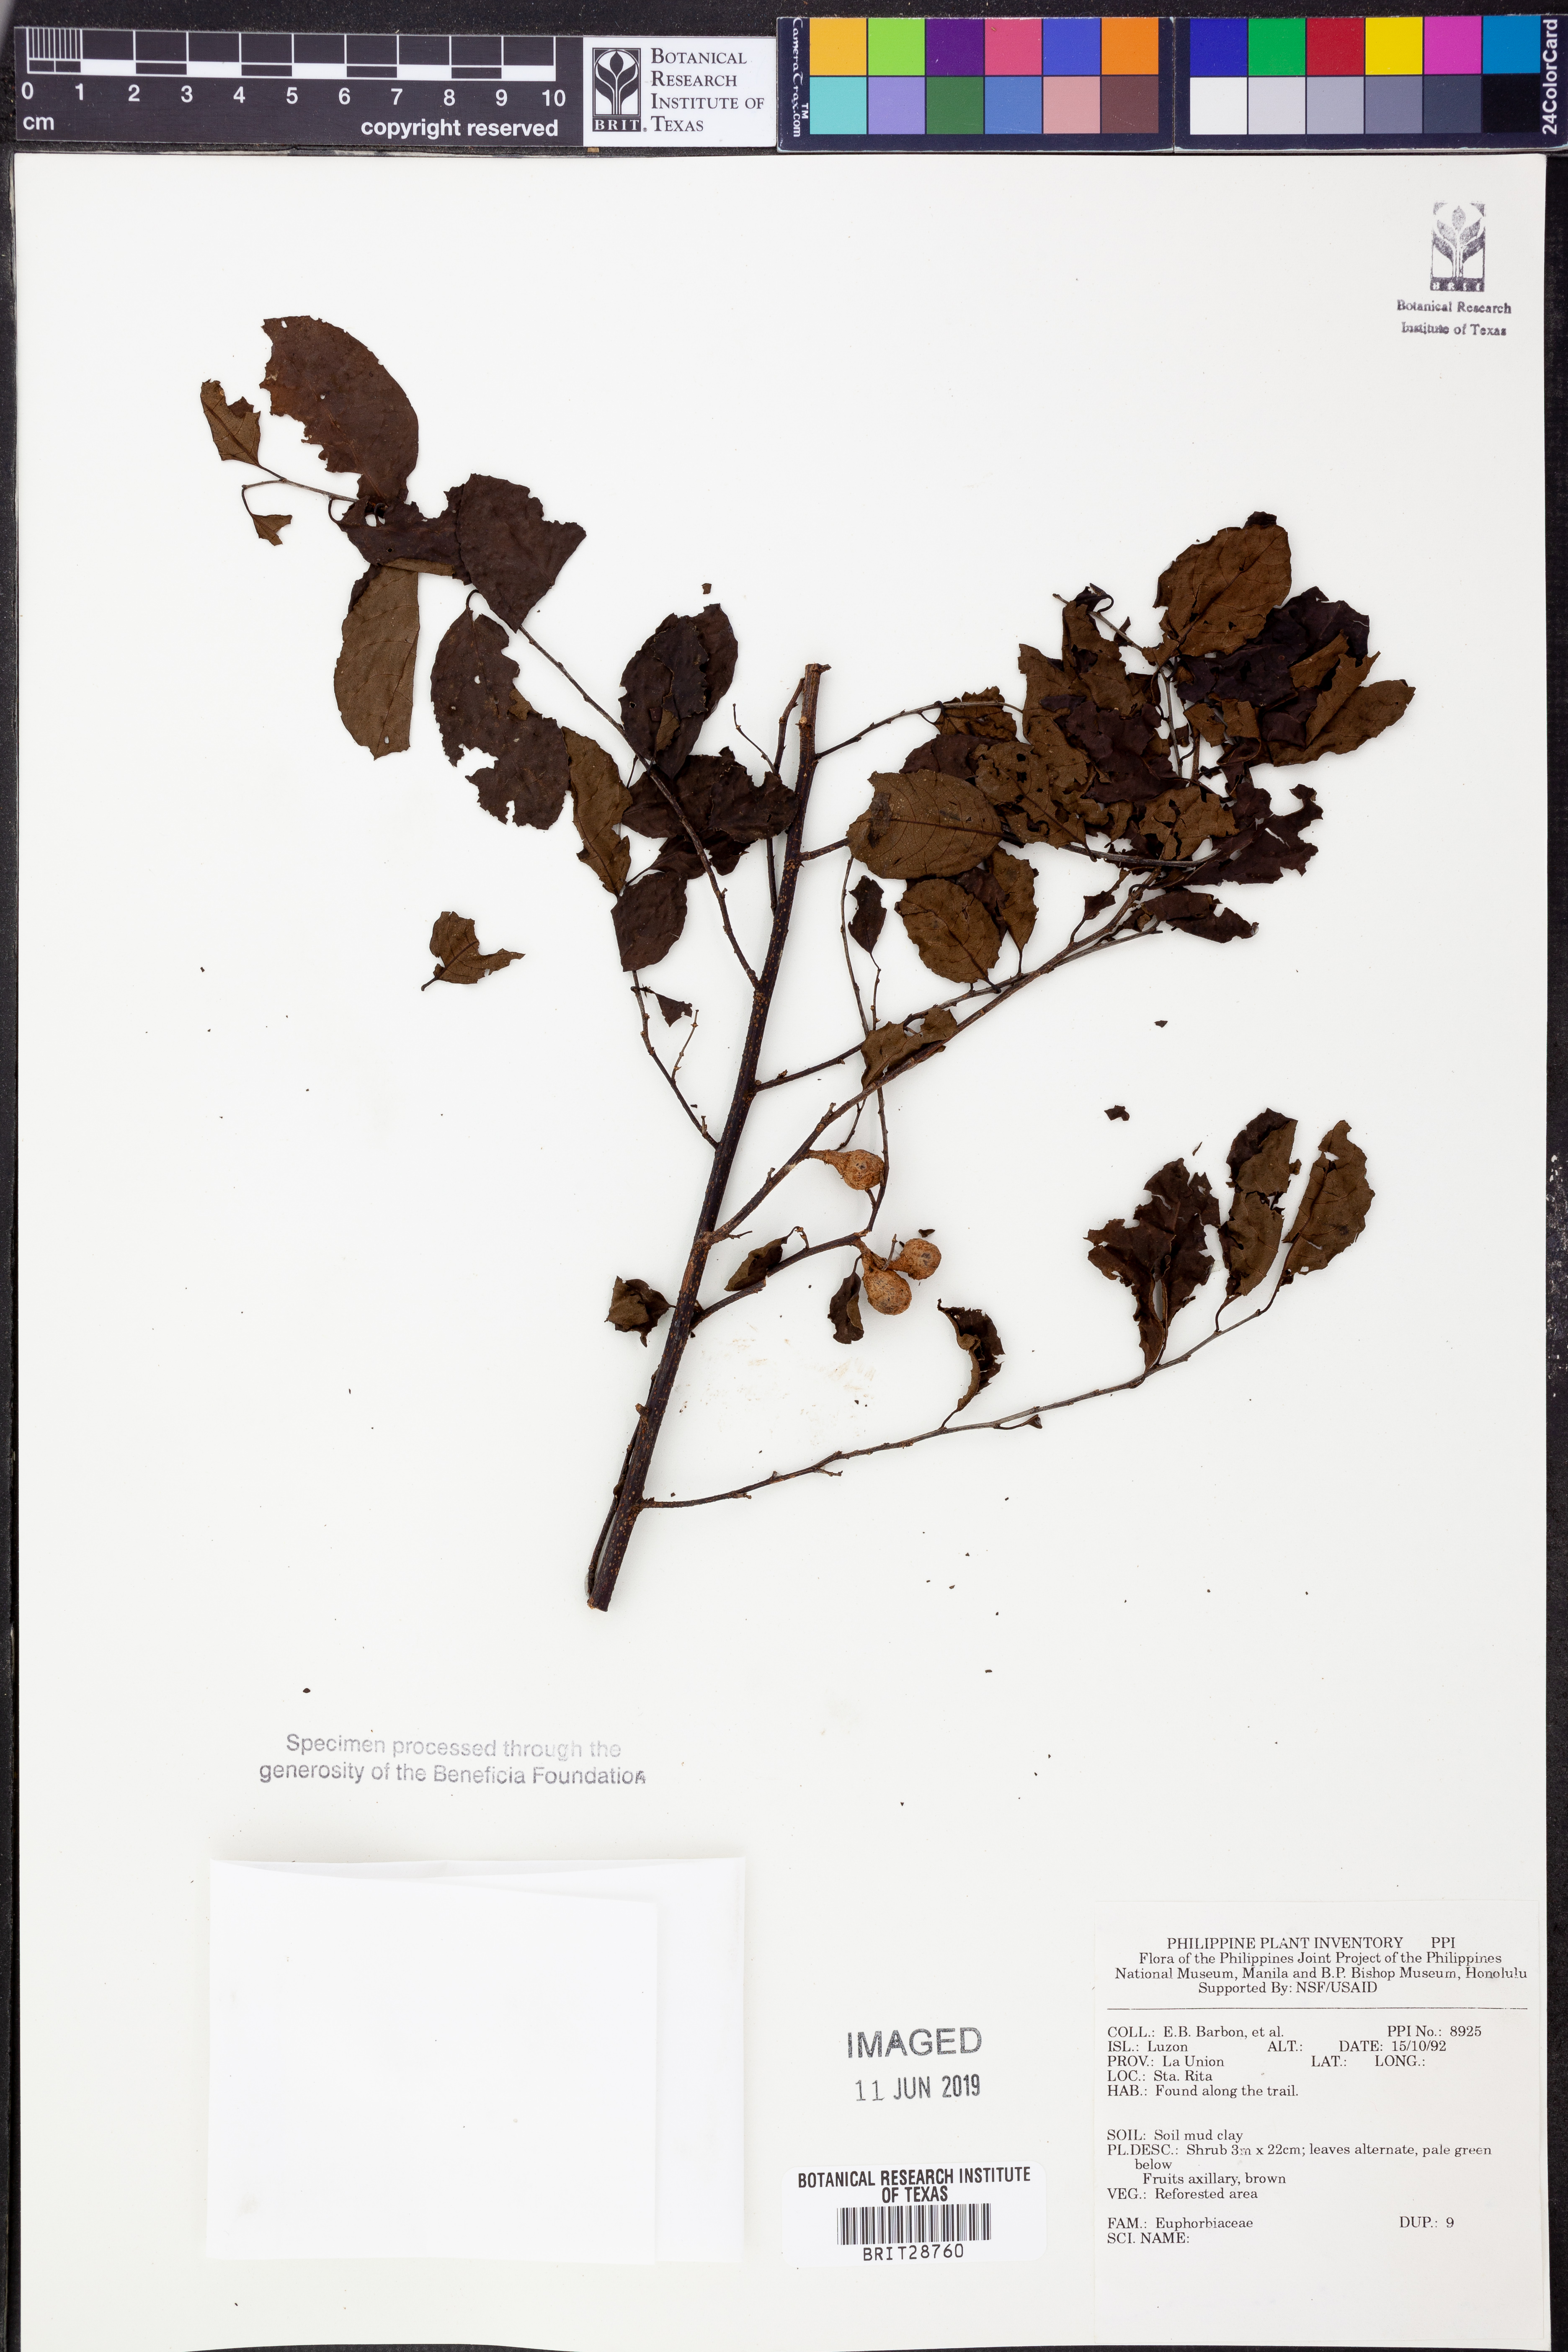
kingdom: Plantae
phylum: Tracheophyta
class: Magnoliopsida
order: Malpighiales
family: Euphorbiaceae
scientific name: Euphorbiaceae
